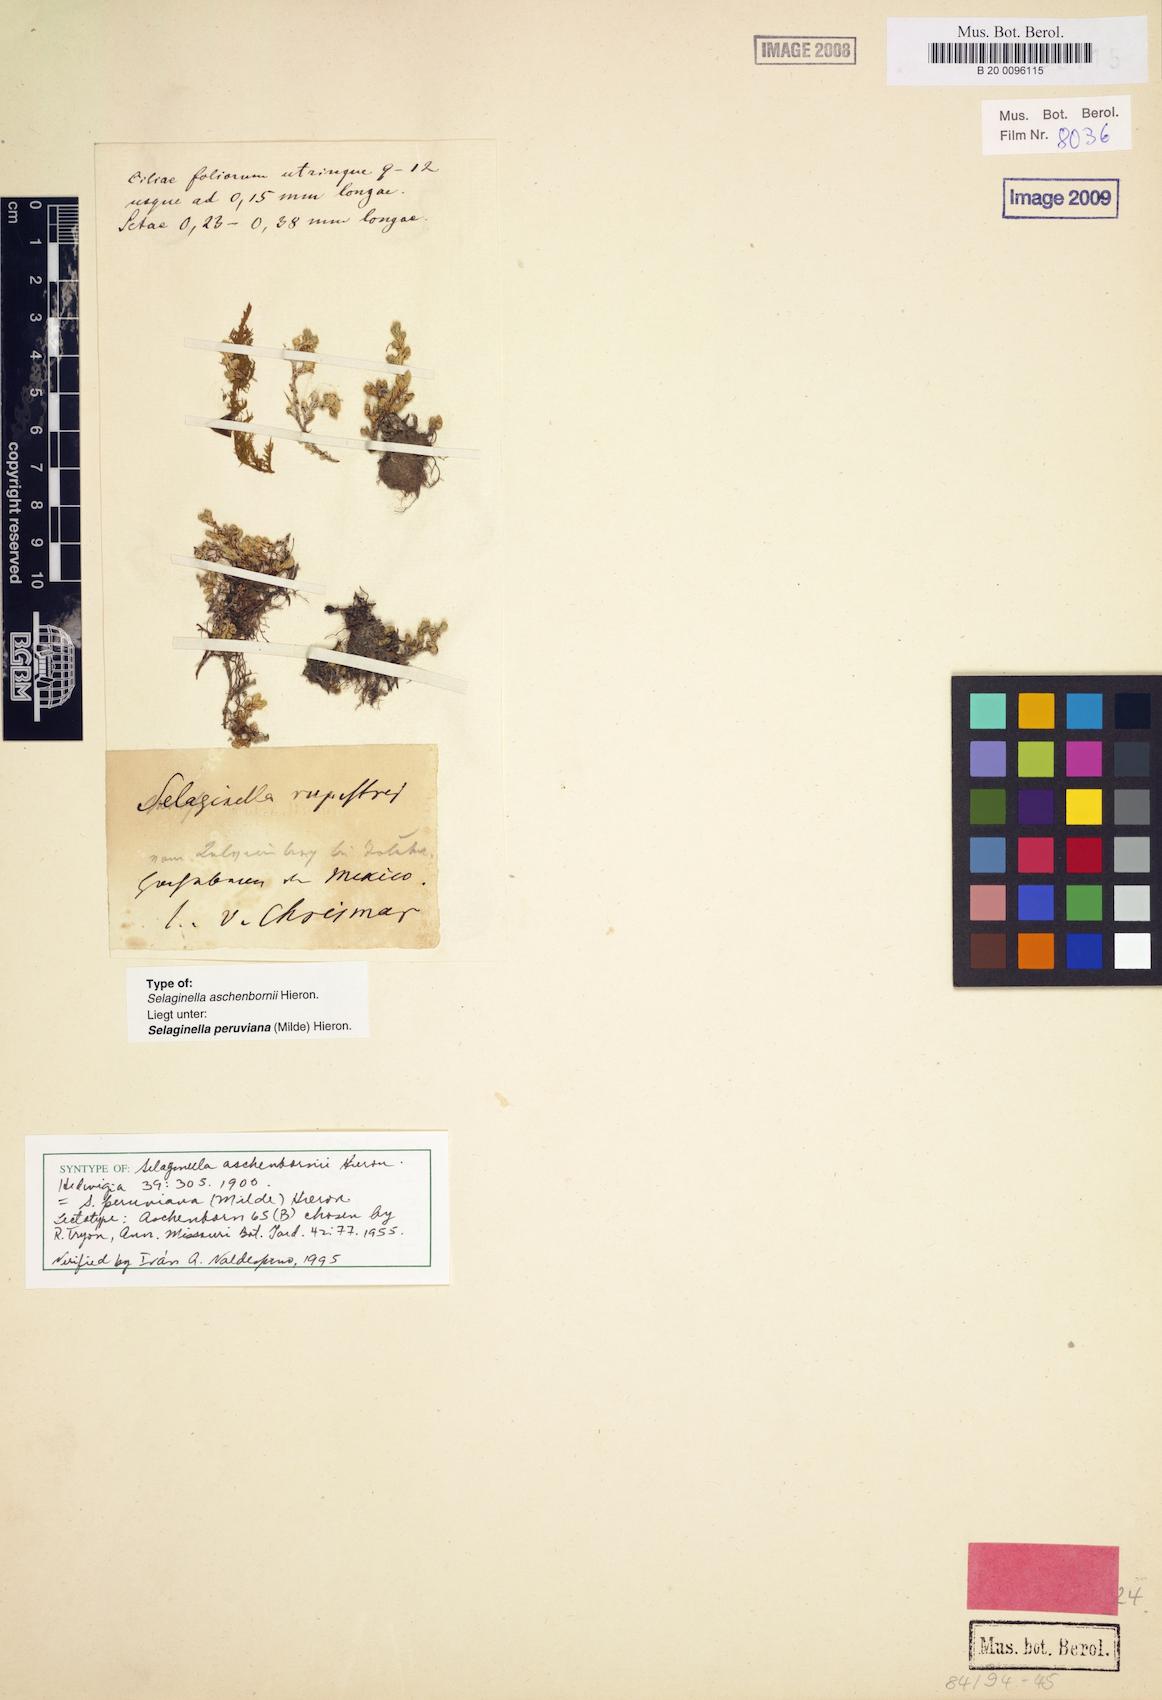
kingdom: Plantae
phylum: Tracheophyta
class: Lycopodiopsida
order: Selaginellales
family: Selaginellaceae
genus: Selaginella
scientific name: Selaginella peruviana
